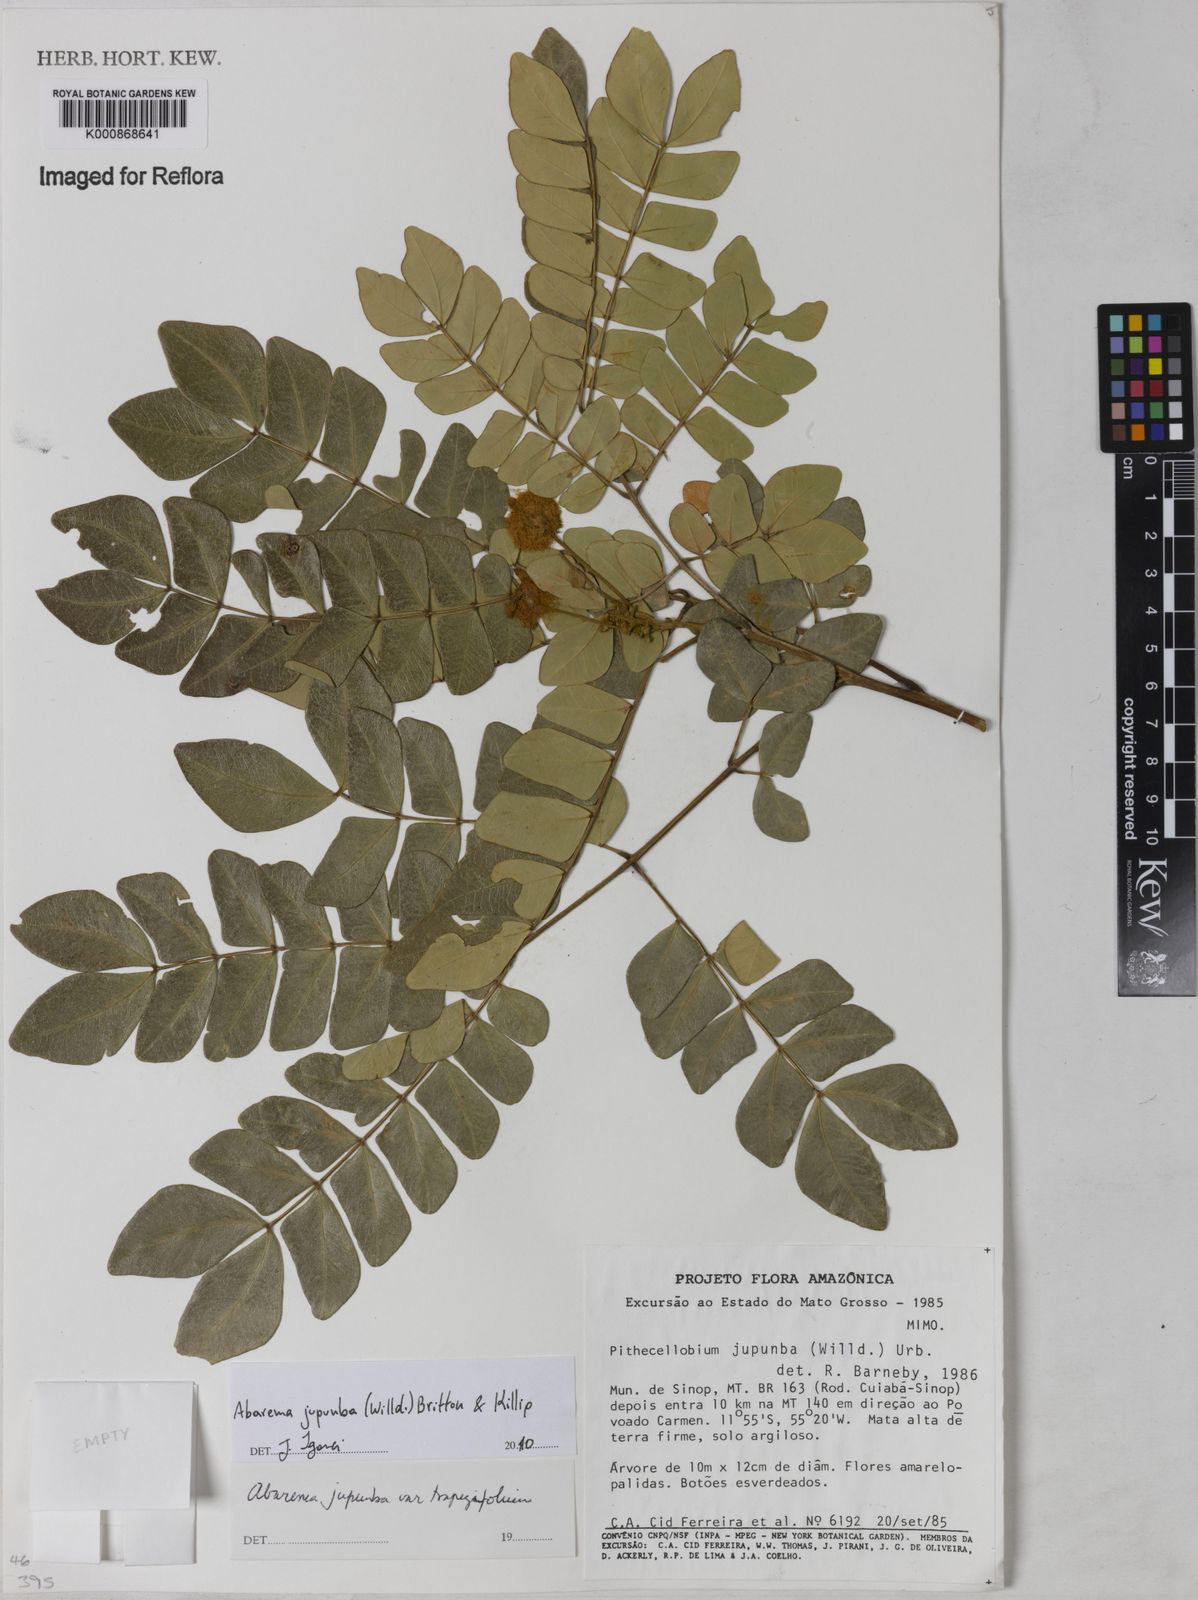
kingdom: Plantae
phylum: Tracheophyta
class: Magnoliopsida
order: Fabales
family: Fabaceae
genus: Jupunba
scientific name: Jupunba trapezifolia
